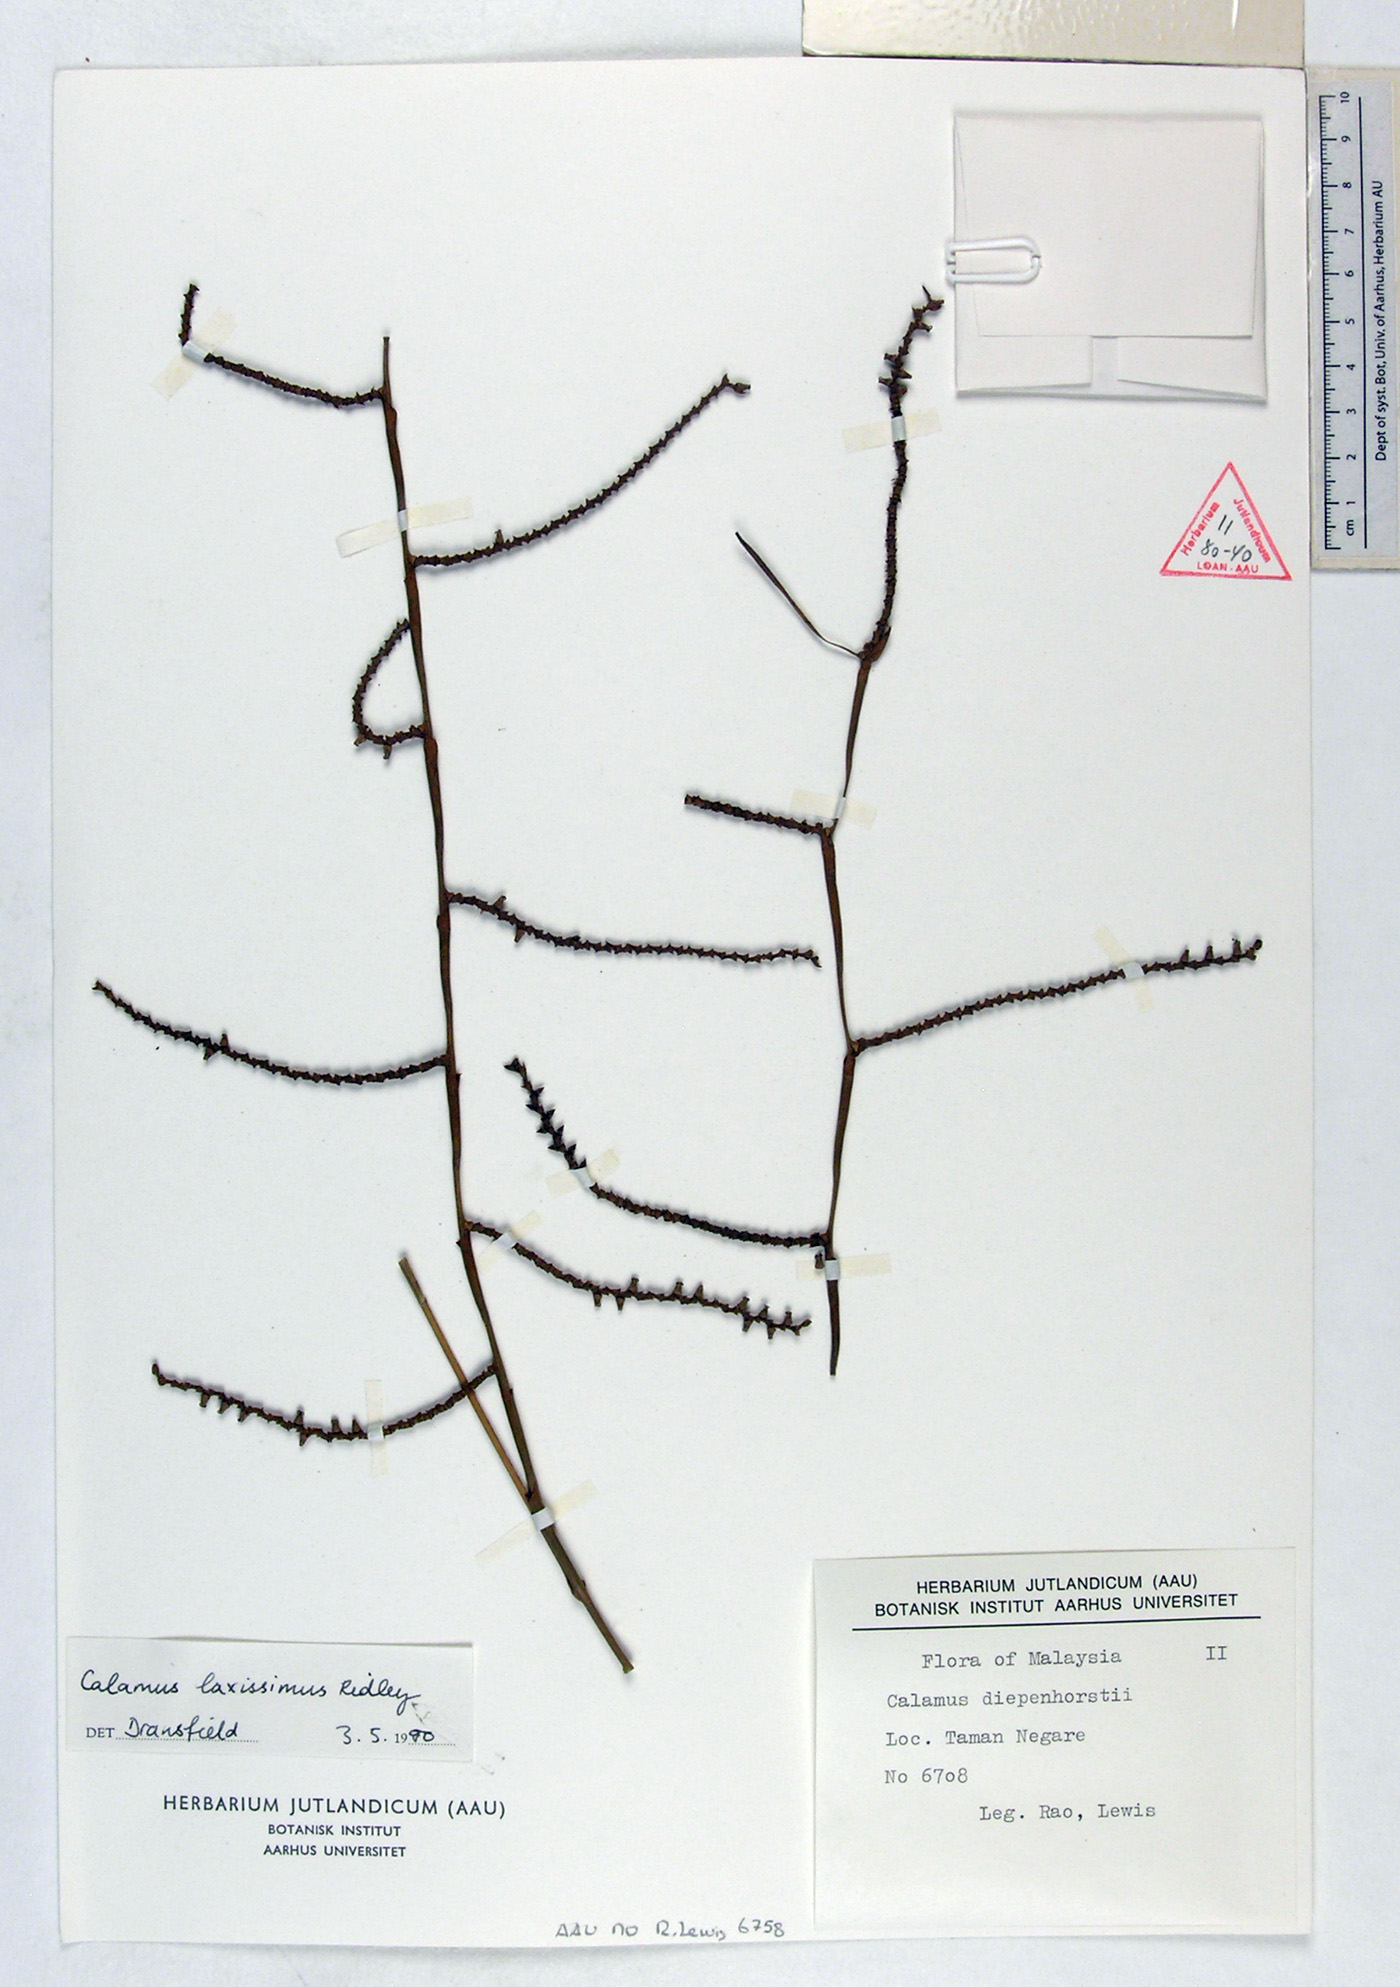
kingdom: Plantae
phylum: Tracheophyta
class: Liliopsida
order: Arecales
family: Arecaceae
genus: Calamus
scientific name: Calamus laxissimus
